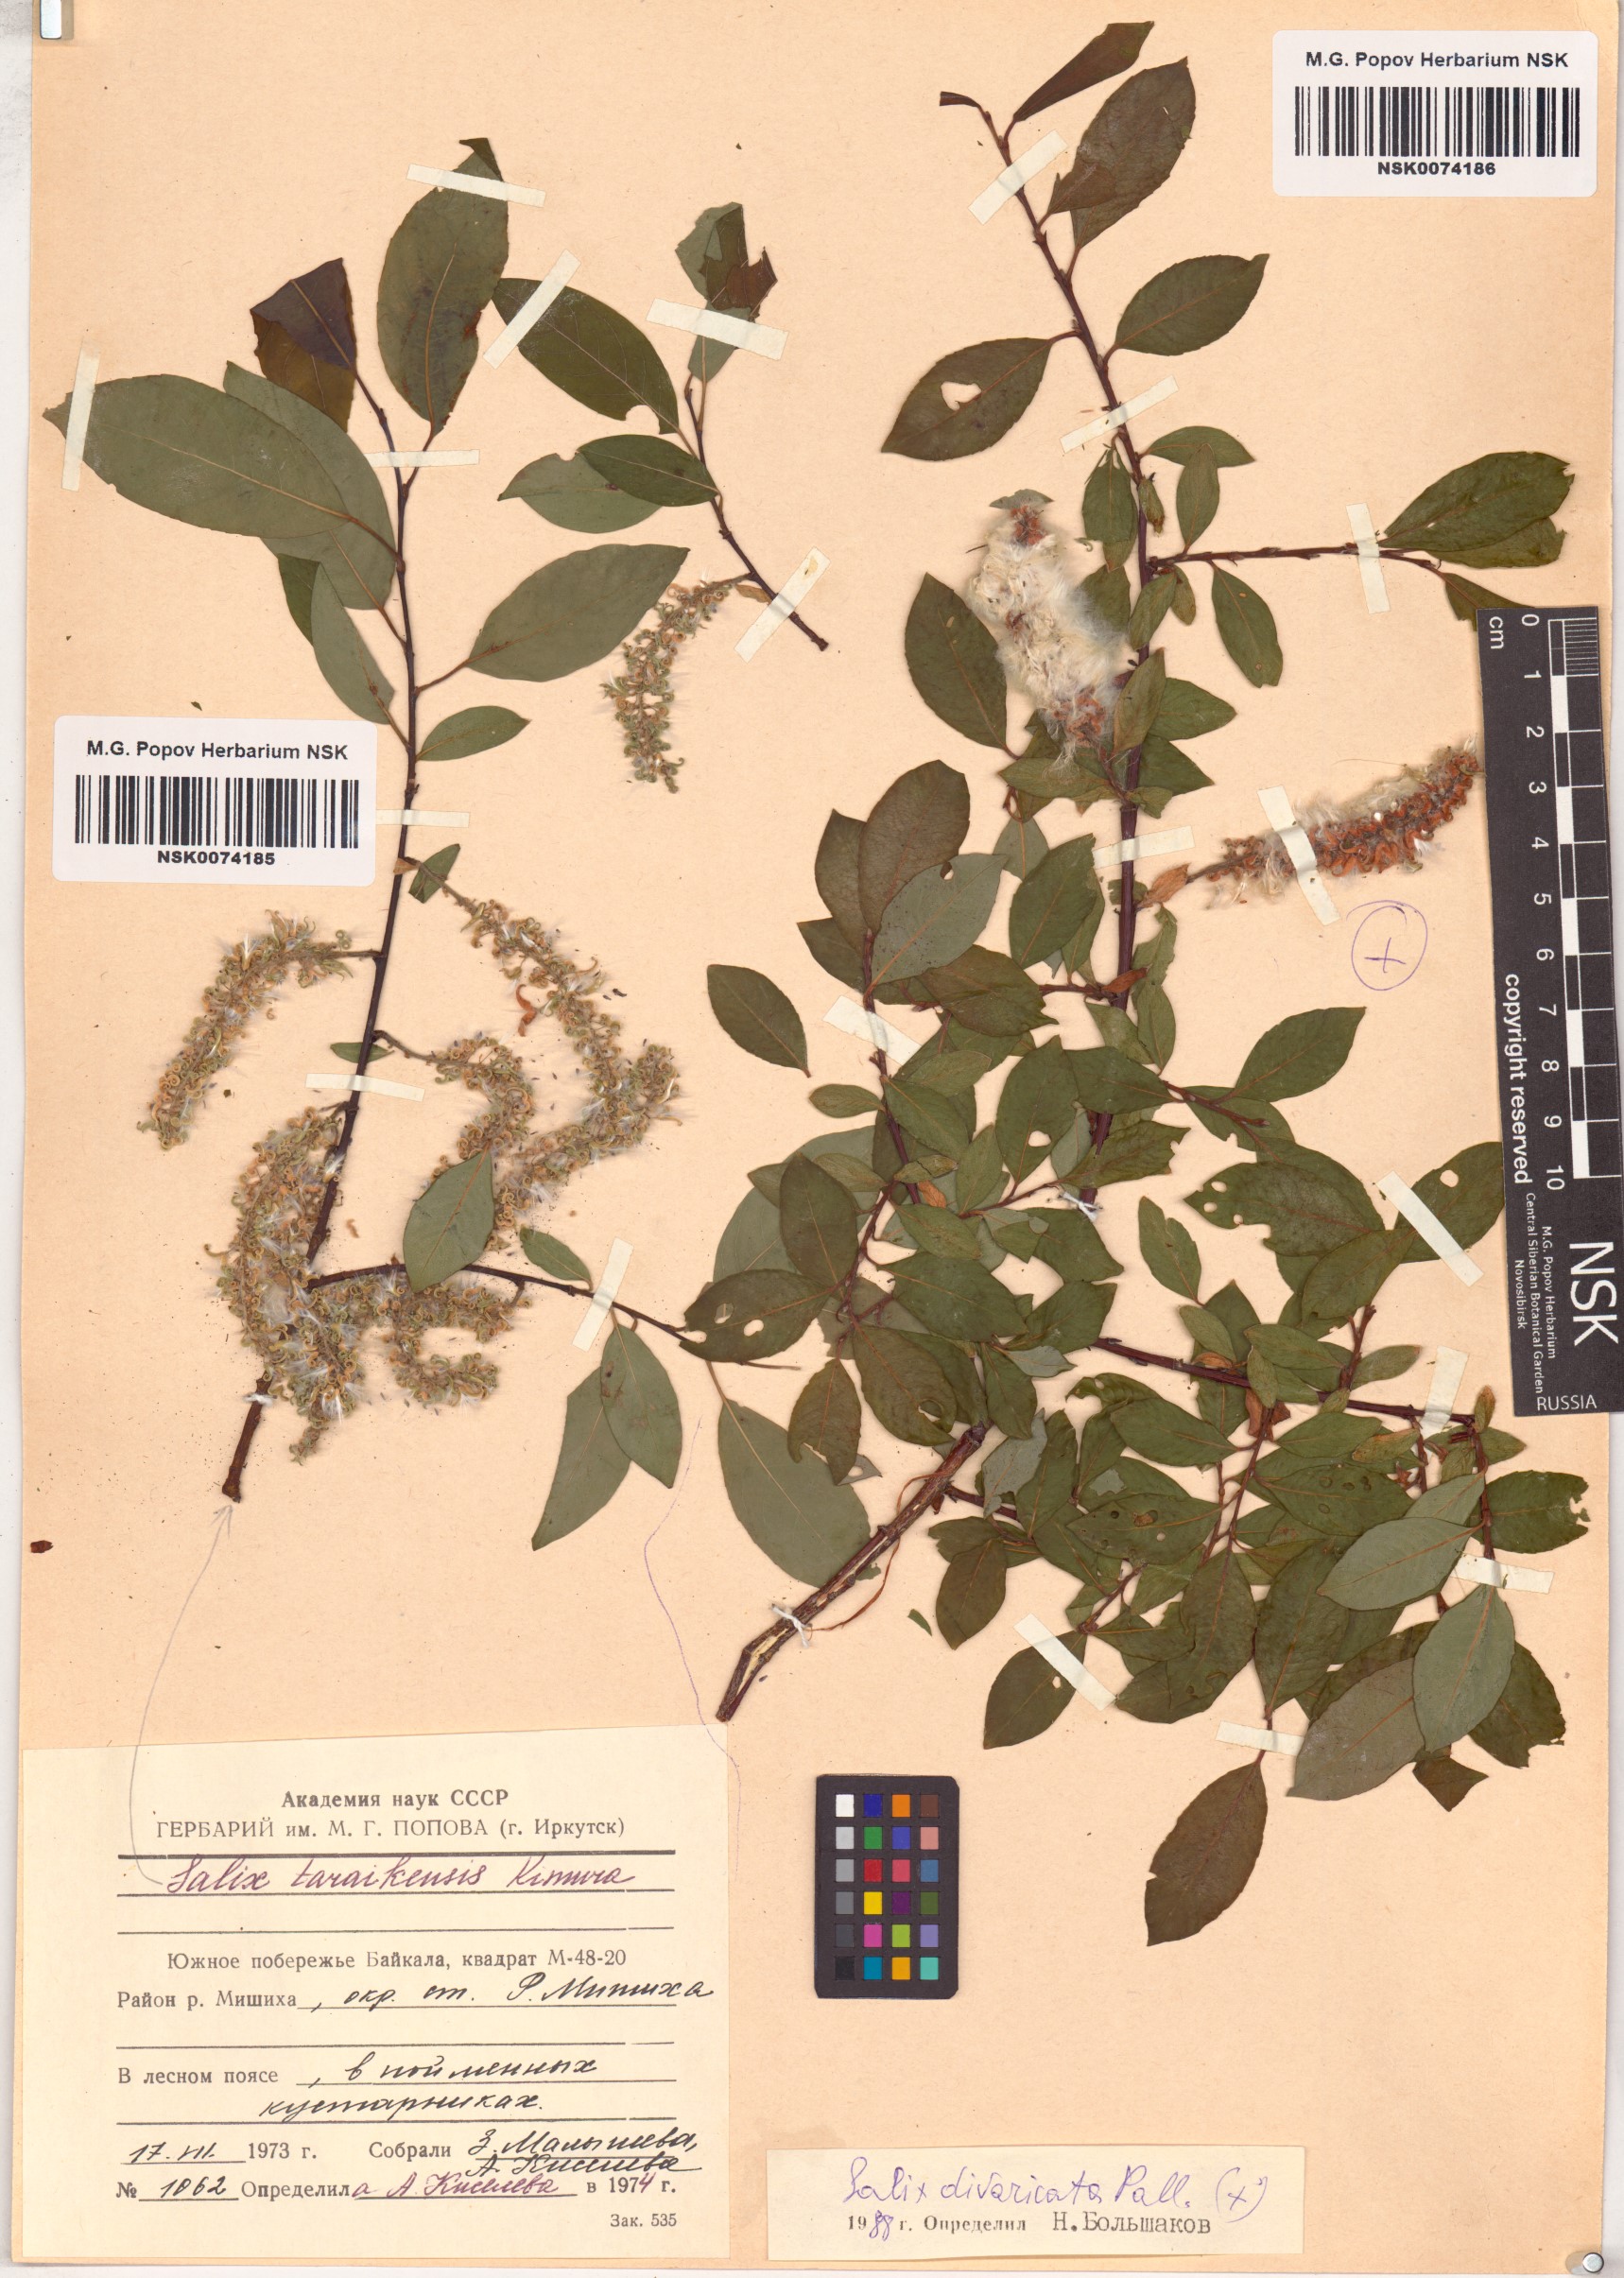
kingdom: Plantae
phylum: Tracheophyta
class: Magnoliopsida
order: Malpighiales
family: Salicaceae
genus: Salix
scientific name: Salix divaricata
